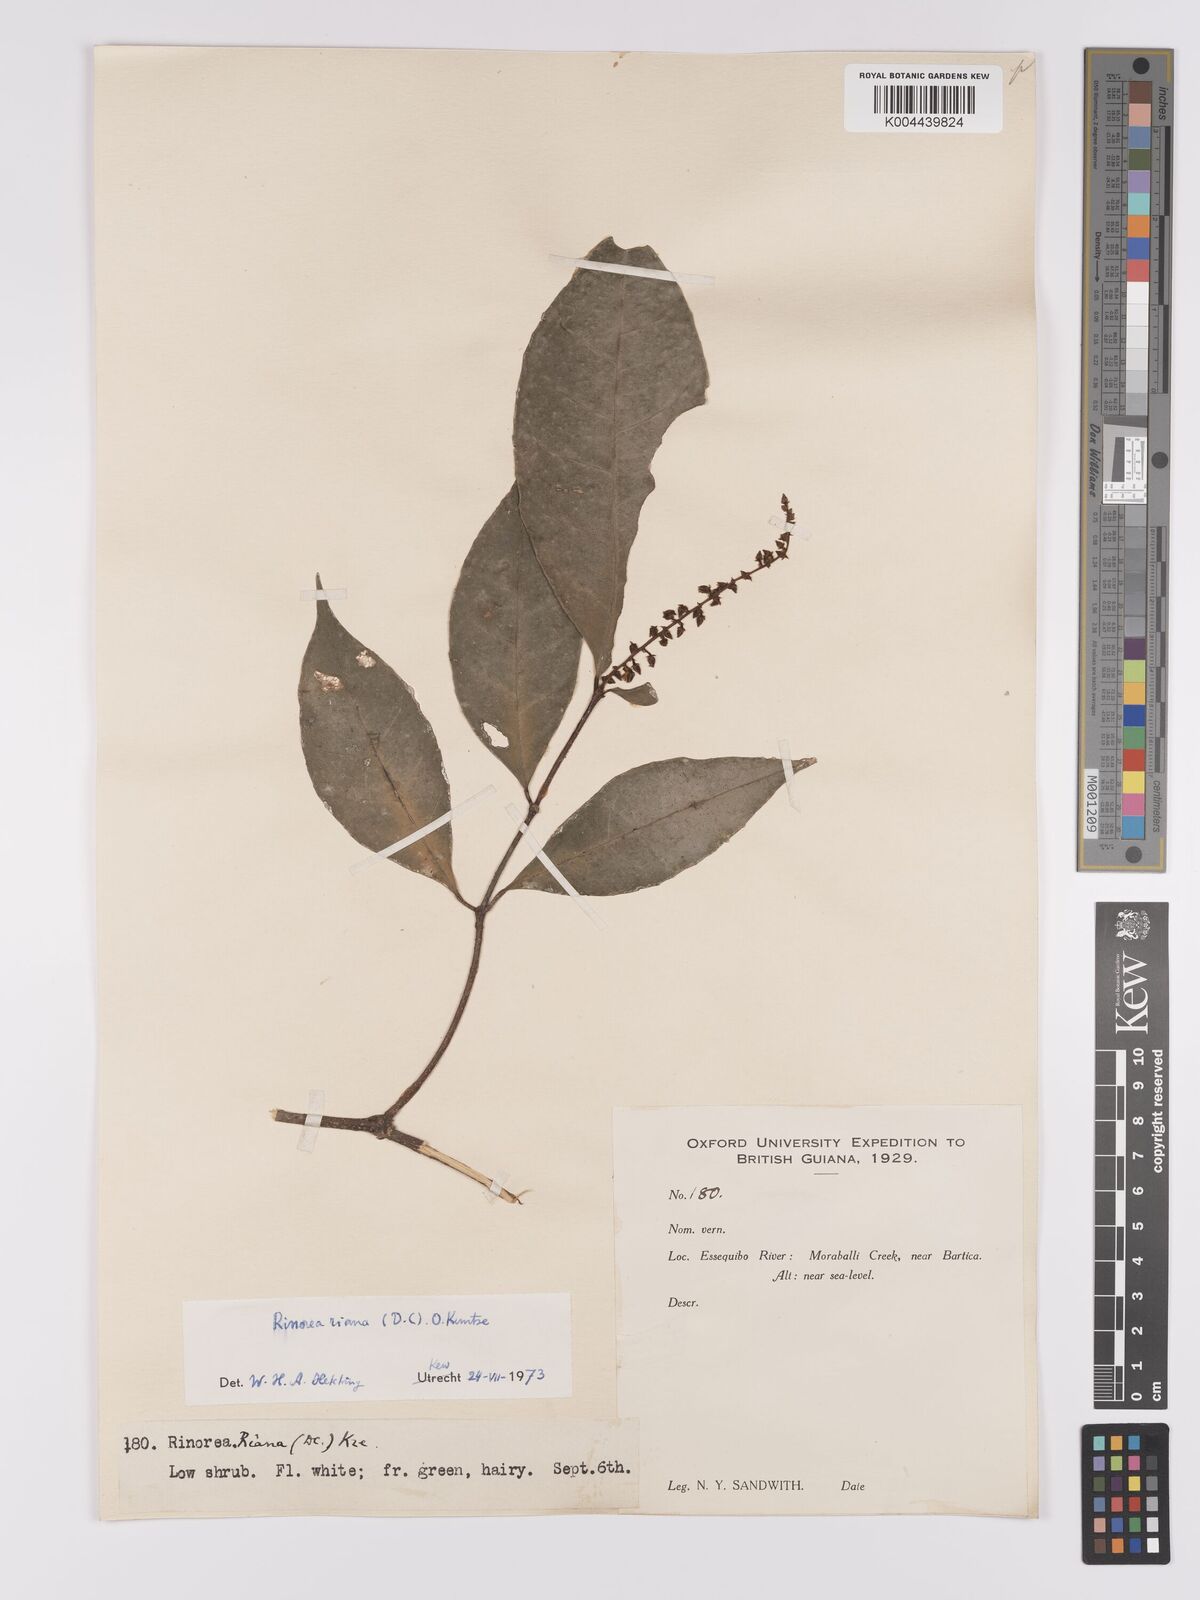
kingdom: Plantae
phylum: Tracheophyta
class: Magnoliopsida
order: Malpighiales
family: Violaceae
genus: Rinorea
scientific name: Rinorea riana
